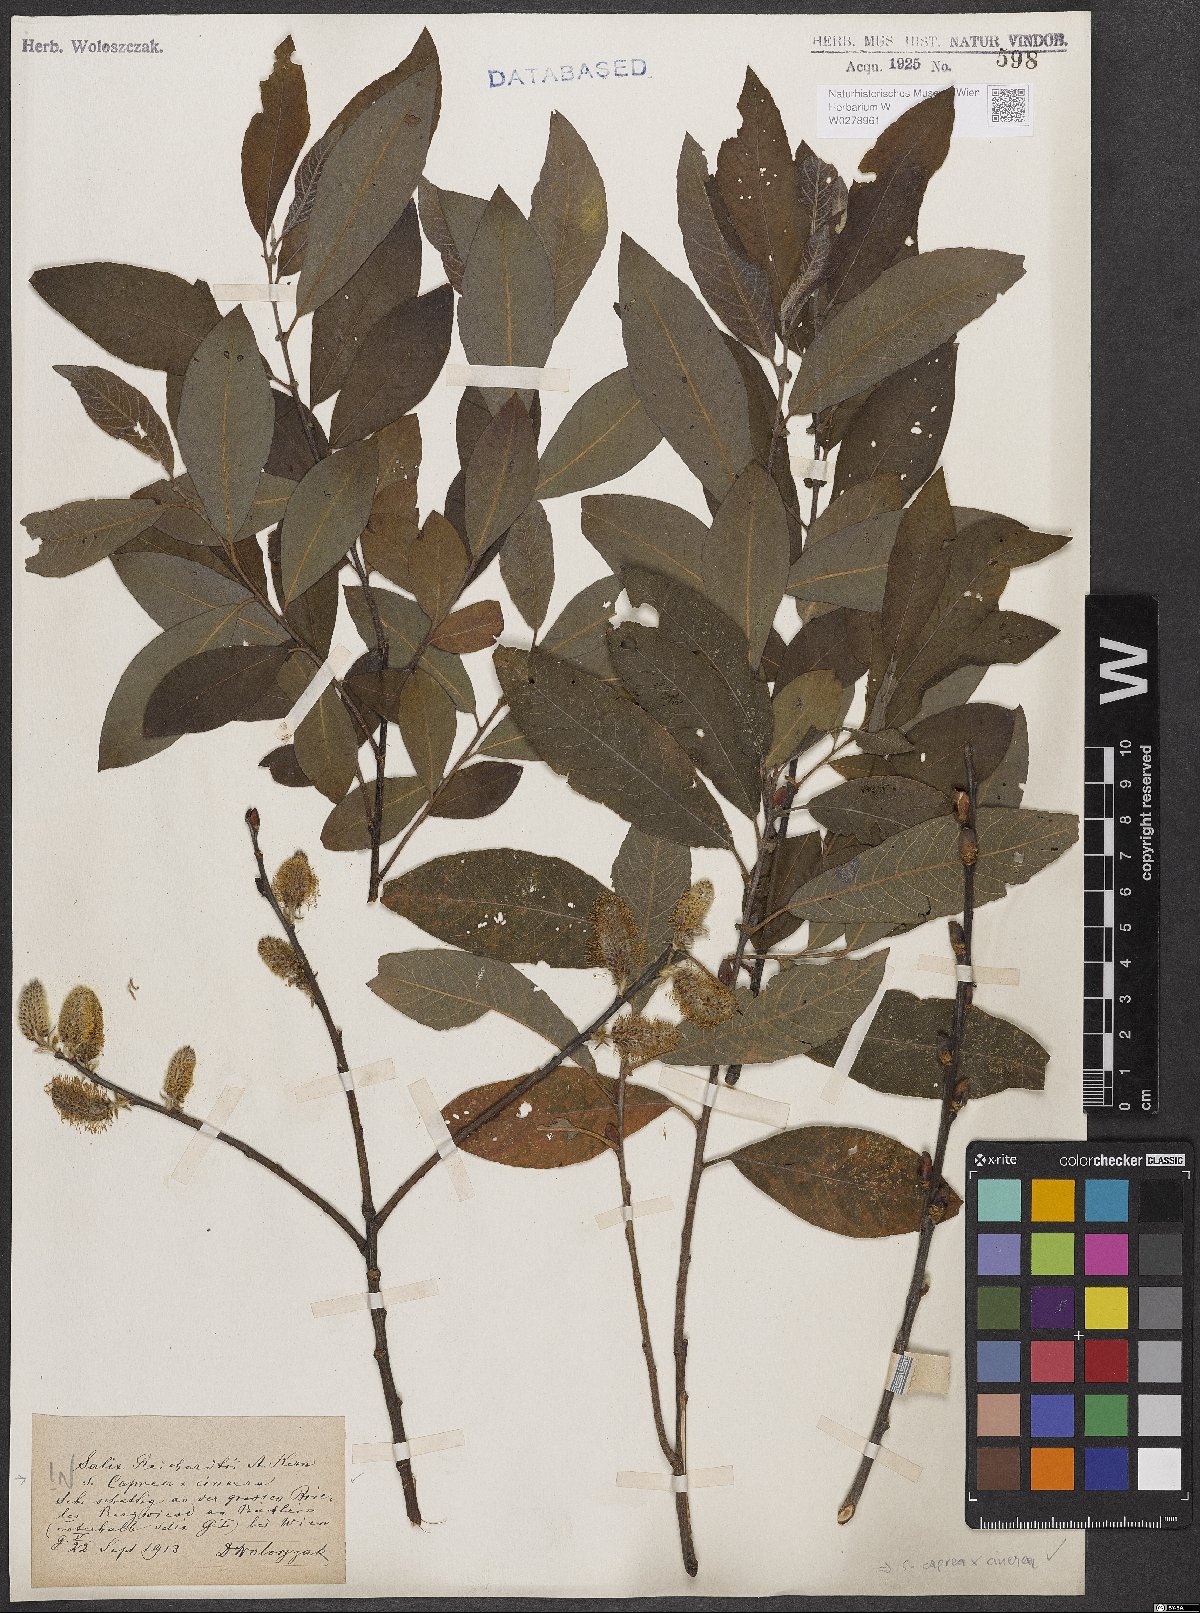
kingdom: Plantae
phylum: Tracheophyta
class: Magnoliopsida
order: Malpighiales
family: Salicaceae
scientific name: Salicaceae
